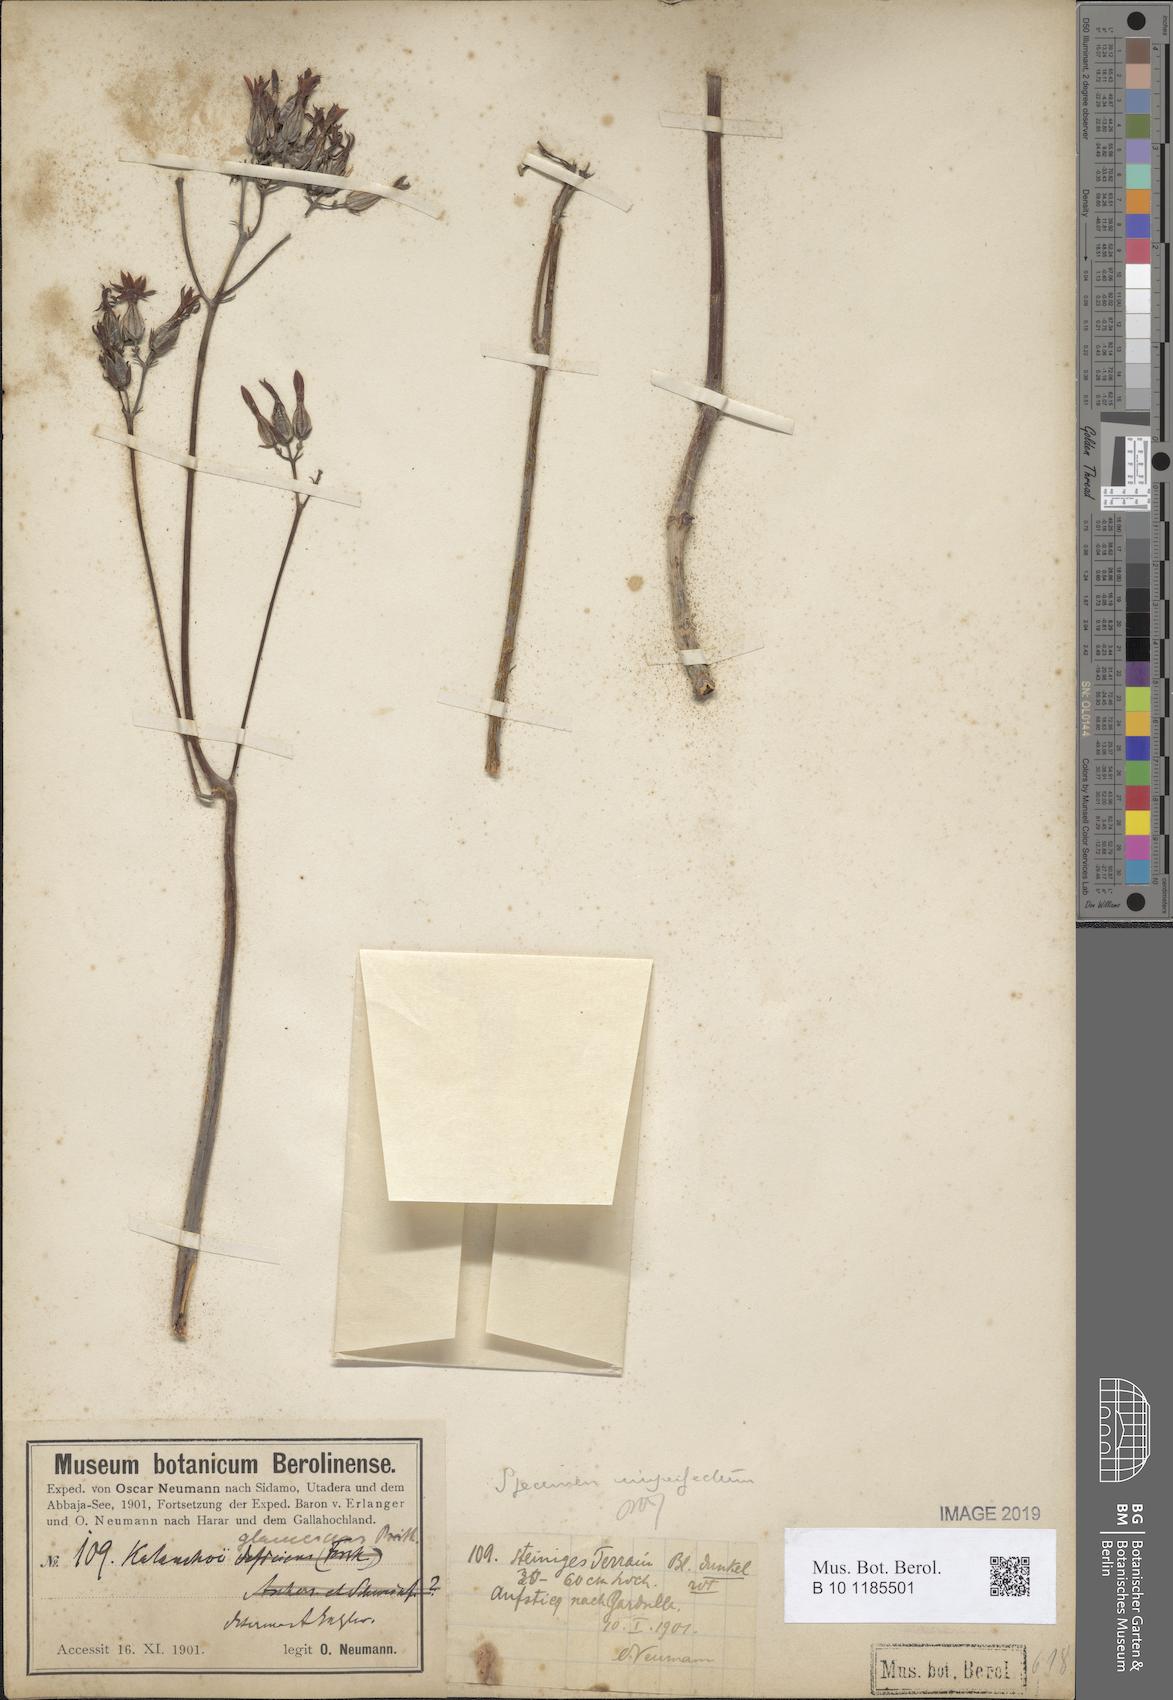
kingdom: Plantae
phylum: Tracheophyta
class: Magnoliopsida
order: Saxifragales
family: Crassulaceae
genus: Kalanchoe
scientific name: Kalanchoe glaucescens
